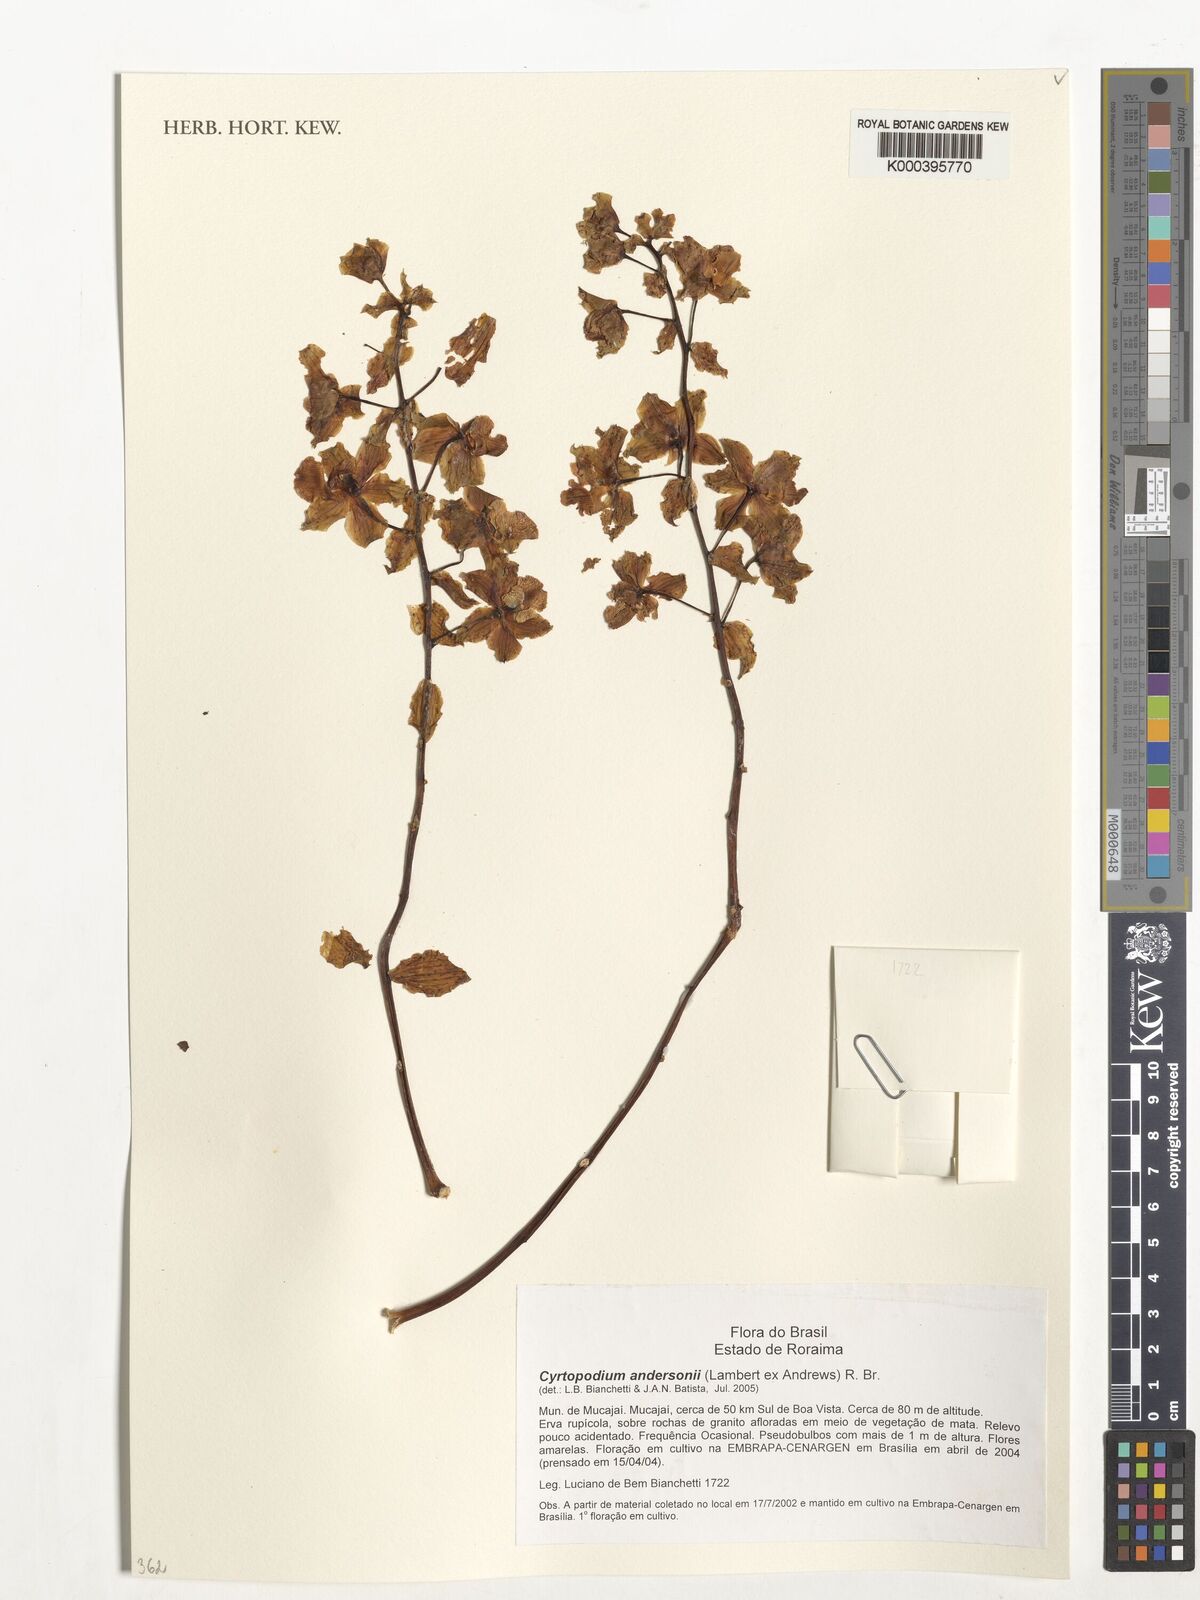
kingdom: Plantae
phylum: Tracheophyta
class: Liliopsida
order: Asparagales
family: Orchidaceae
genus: Cyrtopodium
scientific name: Cyrtopodium andersonii
